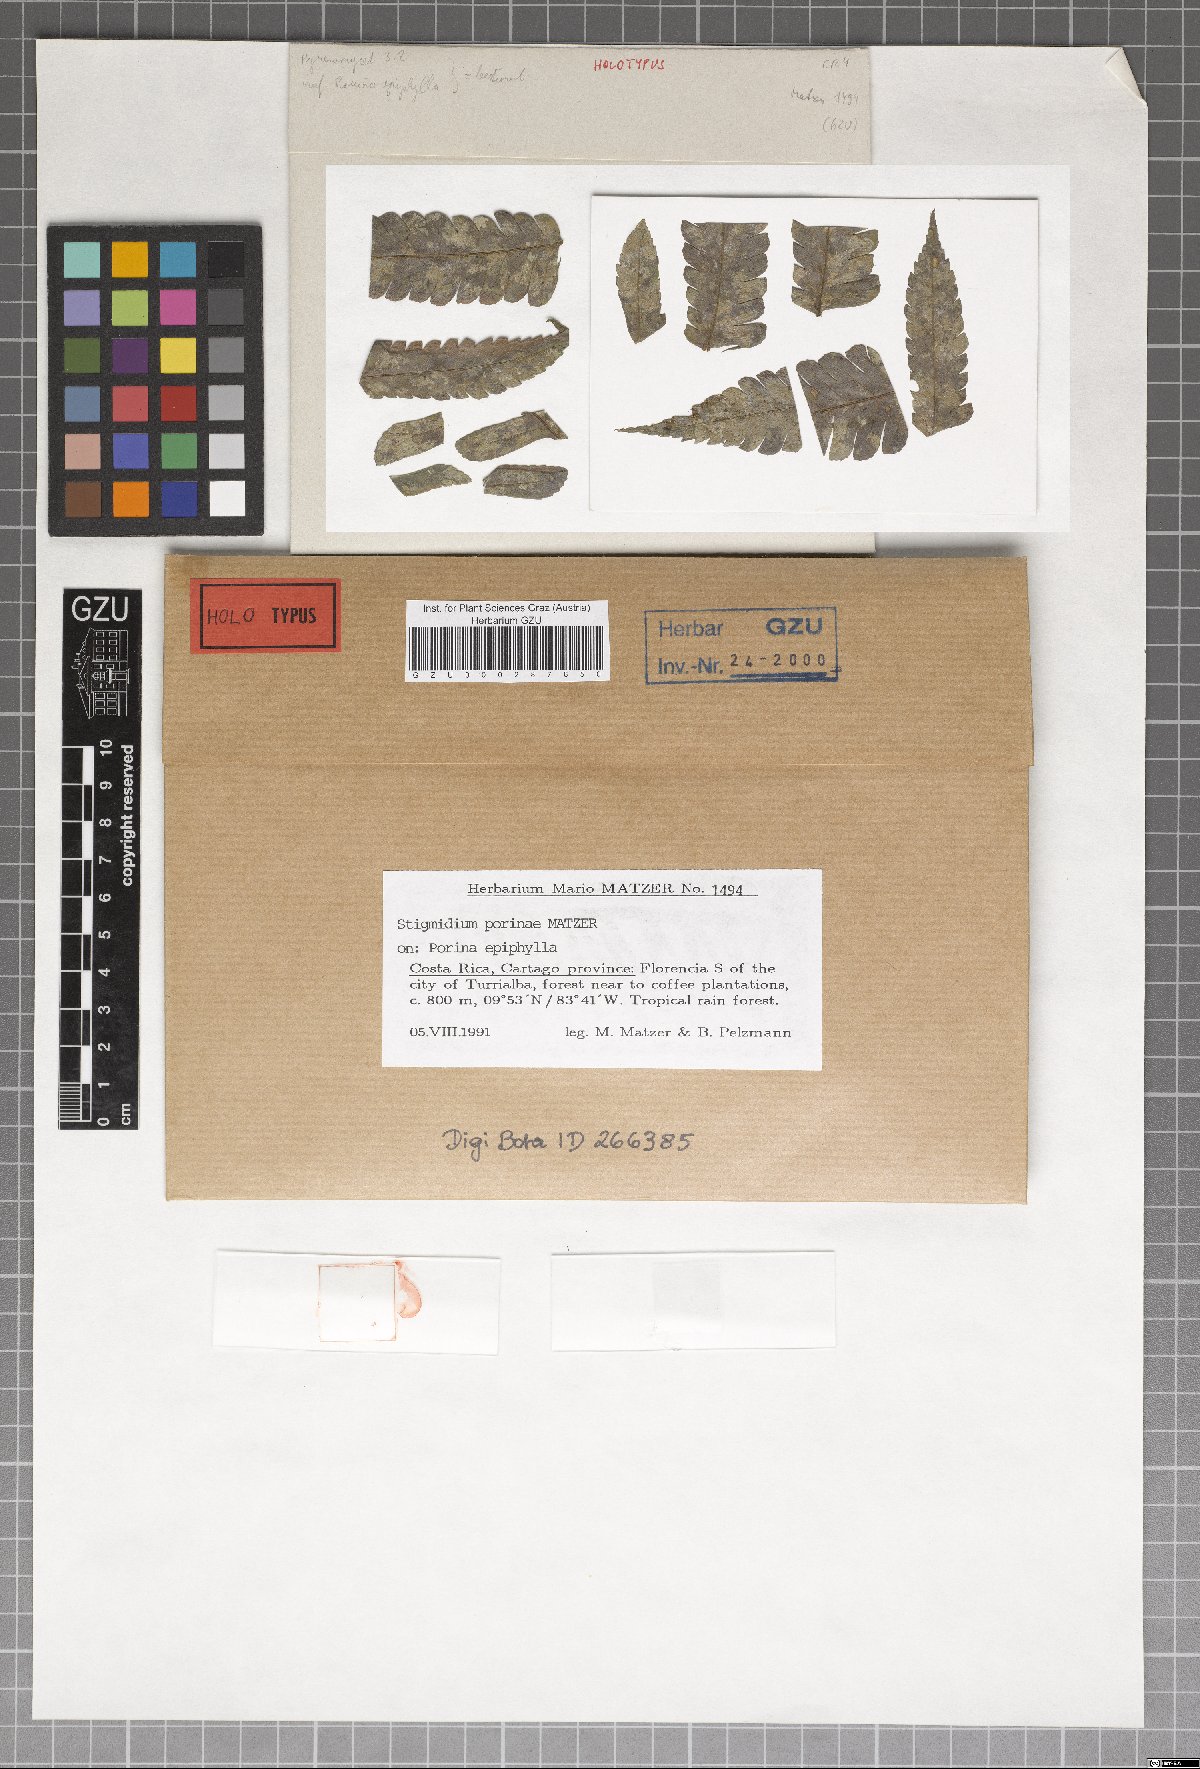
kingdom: Fungi
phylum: Ascomycota
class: Dothideomycetes
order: Mycosphaerellales
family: Mycosphaerellaceae
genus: Stigmidium
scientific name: Stigmidium porinae
